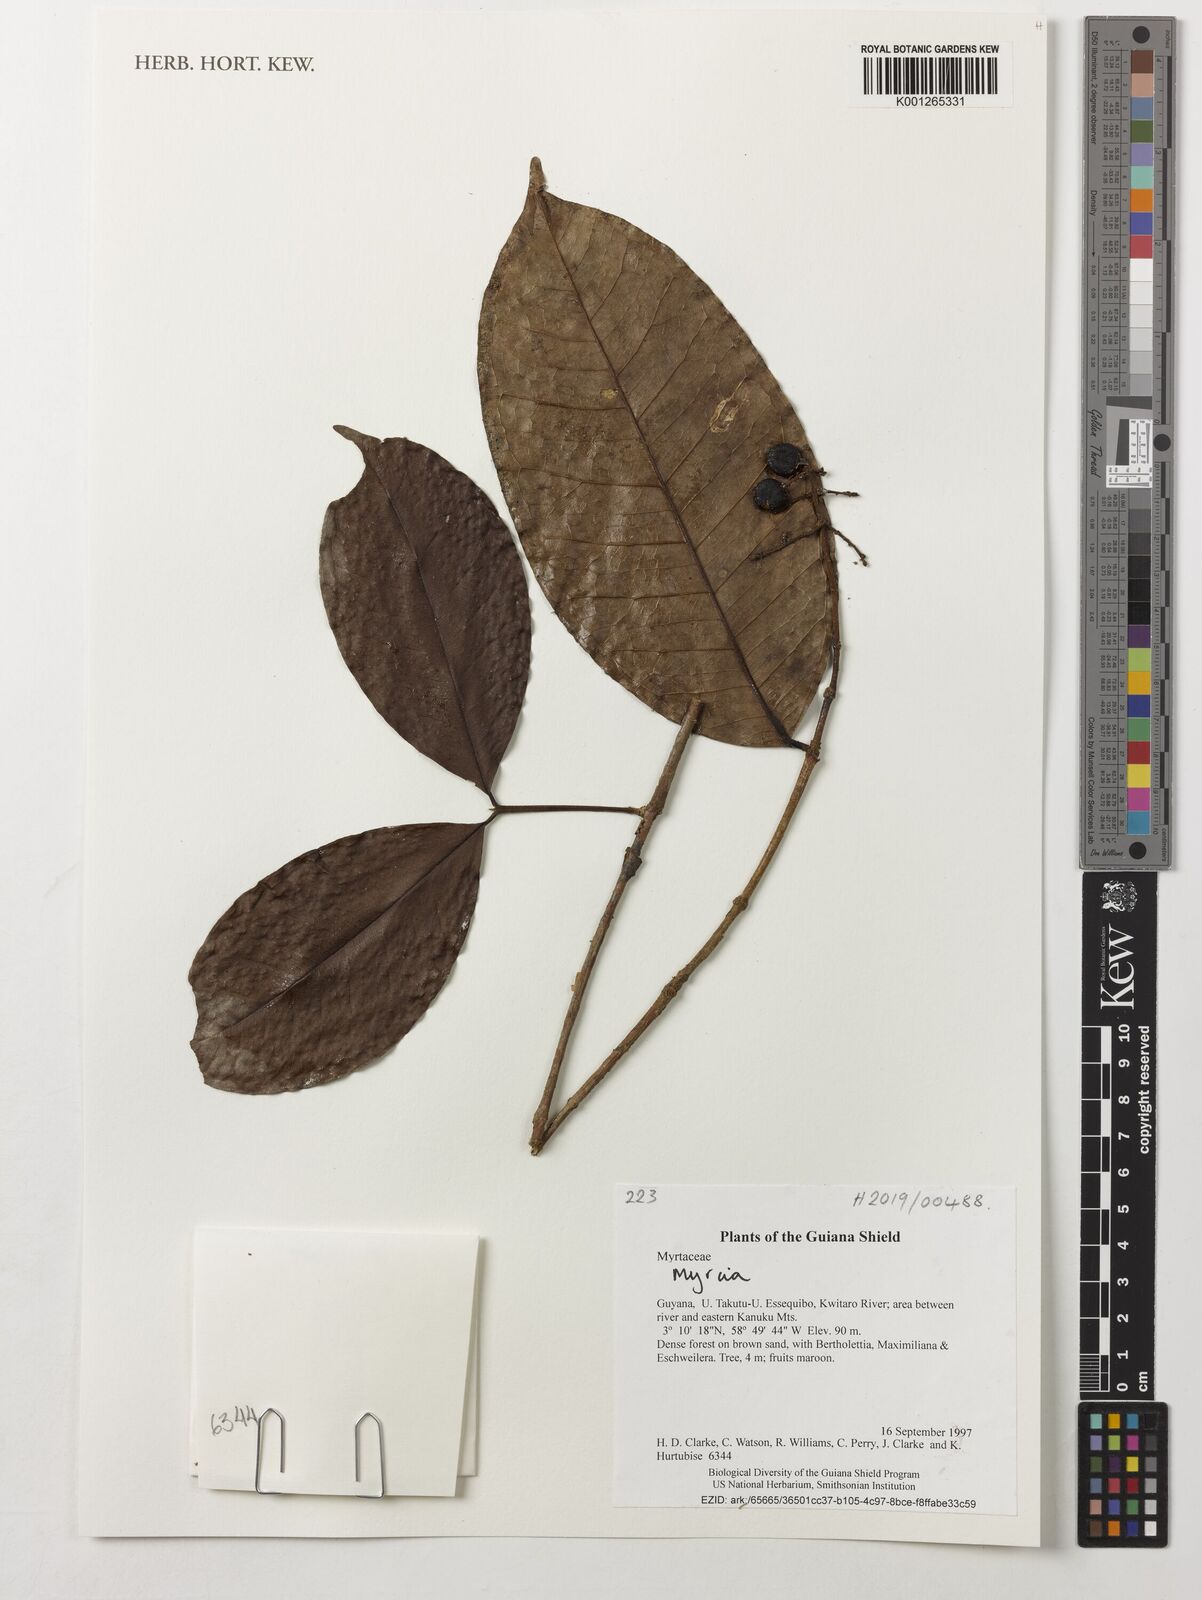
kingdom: Plantae
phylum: Tracheophyta
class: Magnoliopsida
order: Myrtales
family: Myrtaceae
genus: Myrcia
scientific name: Myrcia
